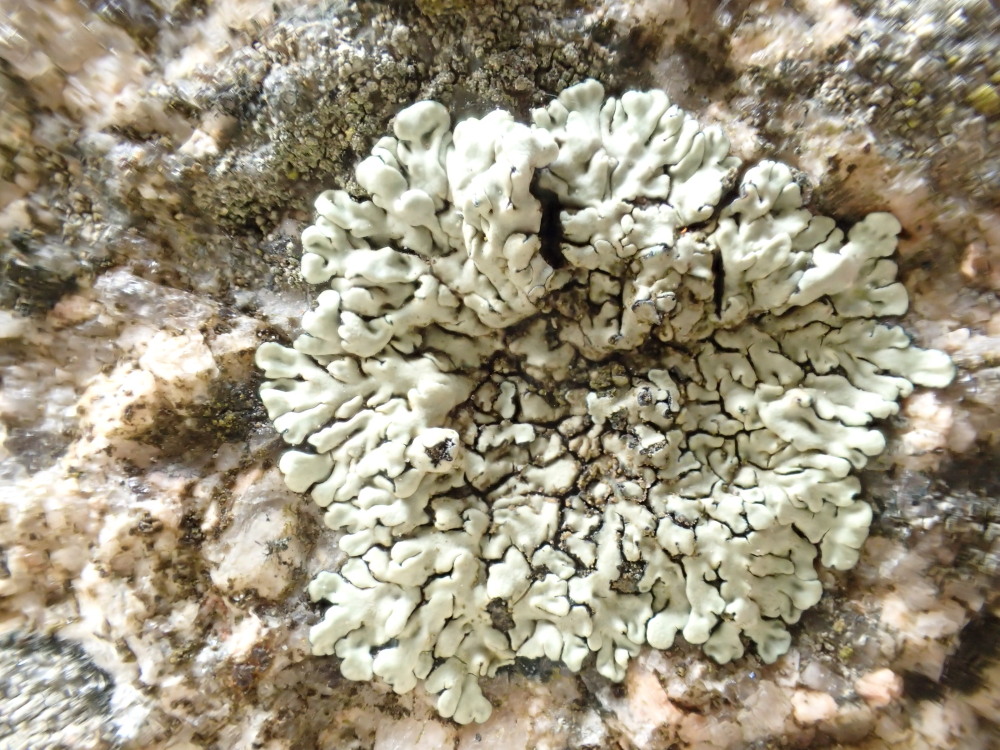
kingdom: Fungi
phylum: Ascomycota
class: Lecanoromycetes
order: Lecanorales
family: Lecanoraceae
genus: Protoparmeliopsis
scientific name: Protoparmeliopsis muralis
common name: randfliget kantskivelav
